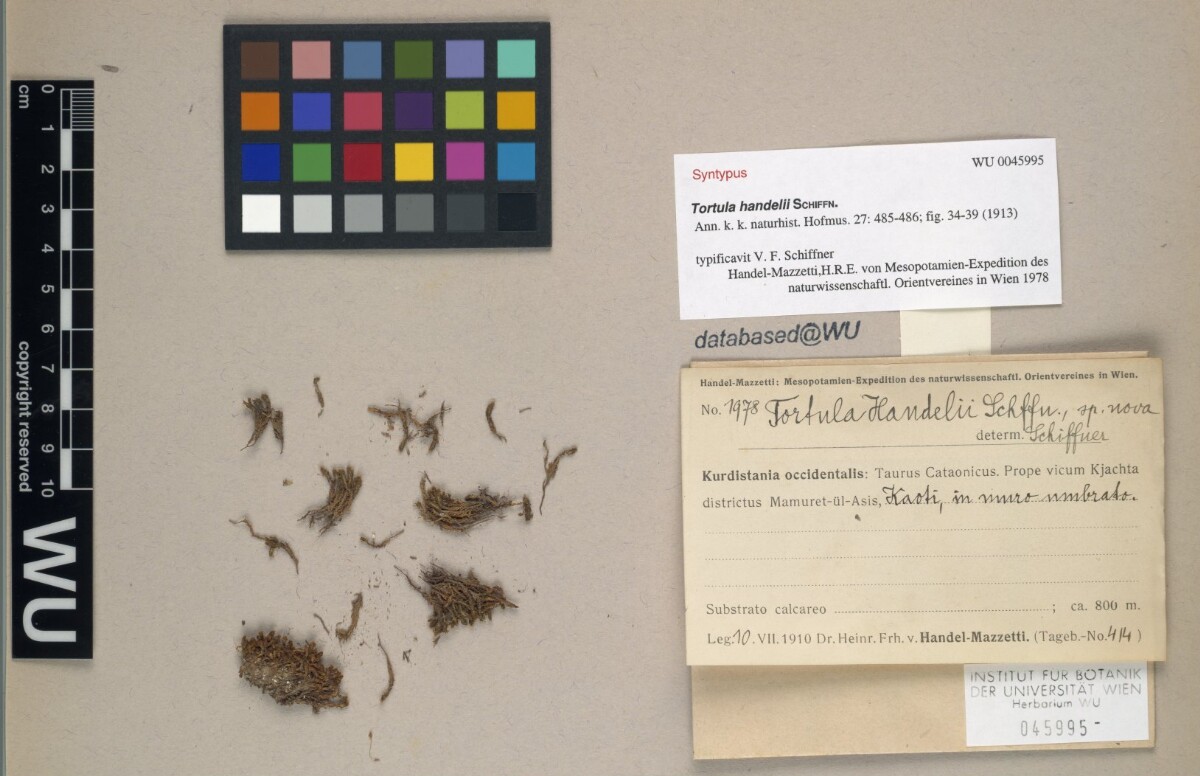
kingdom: Plantae
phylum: Bryophyta
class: Bryopsida
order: Pottiales
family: Pottiaceae
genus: Syntrichia
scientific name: Syntrichia handelii
